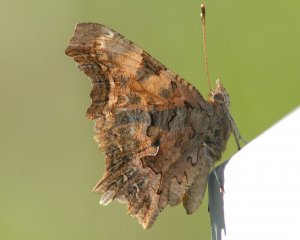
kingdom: Animalia
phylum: Arthropoda
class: Insecta
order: Lepidoptera
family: Nymphalidae
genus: Polygonia
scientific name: Polygonia satyrus
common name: Satyr Comma
